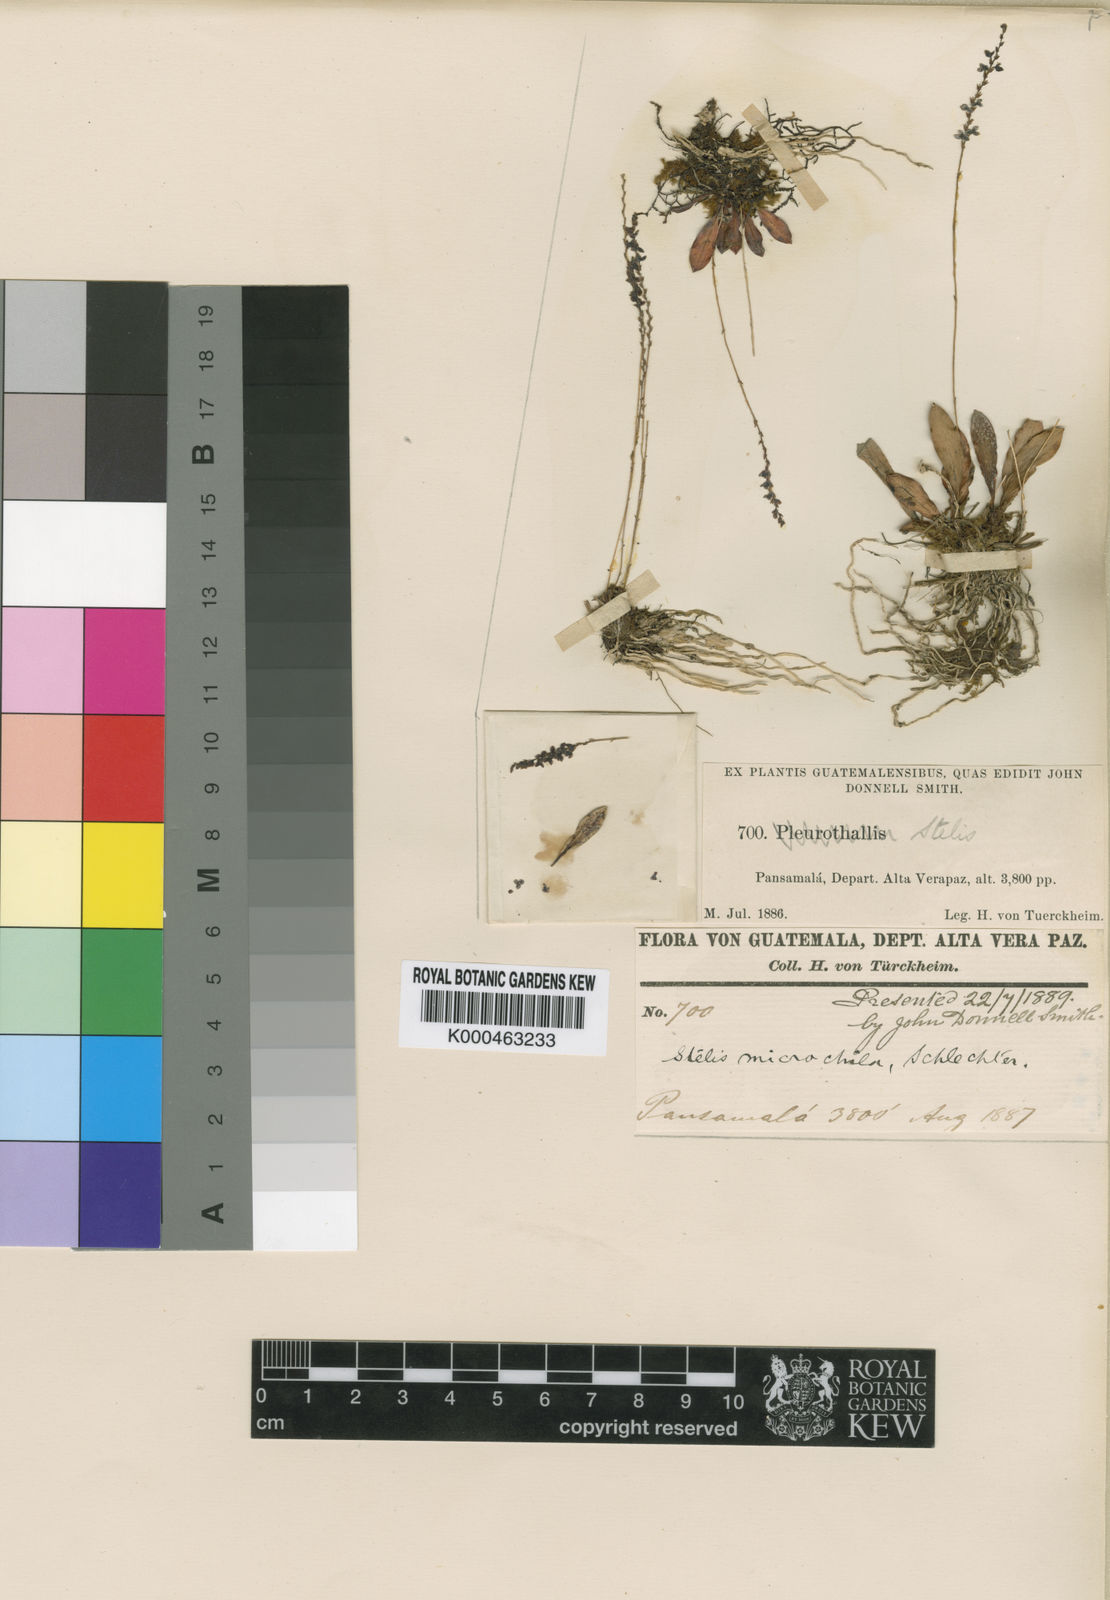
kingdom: Plantae
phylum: Tracheophyta
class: Liliopsida
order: Asparagales
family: Orchidaceae
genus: Stelis
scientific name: Stelis microchila
